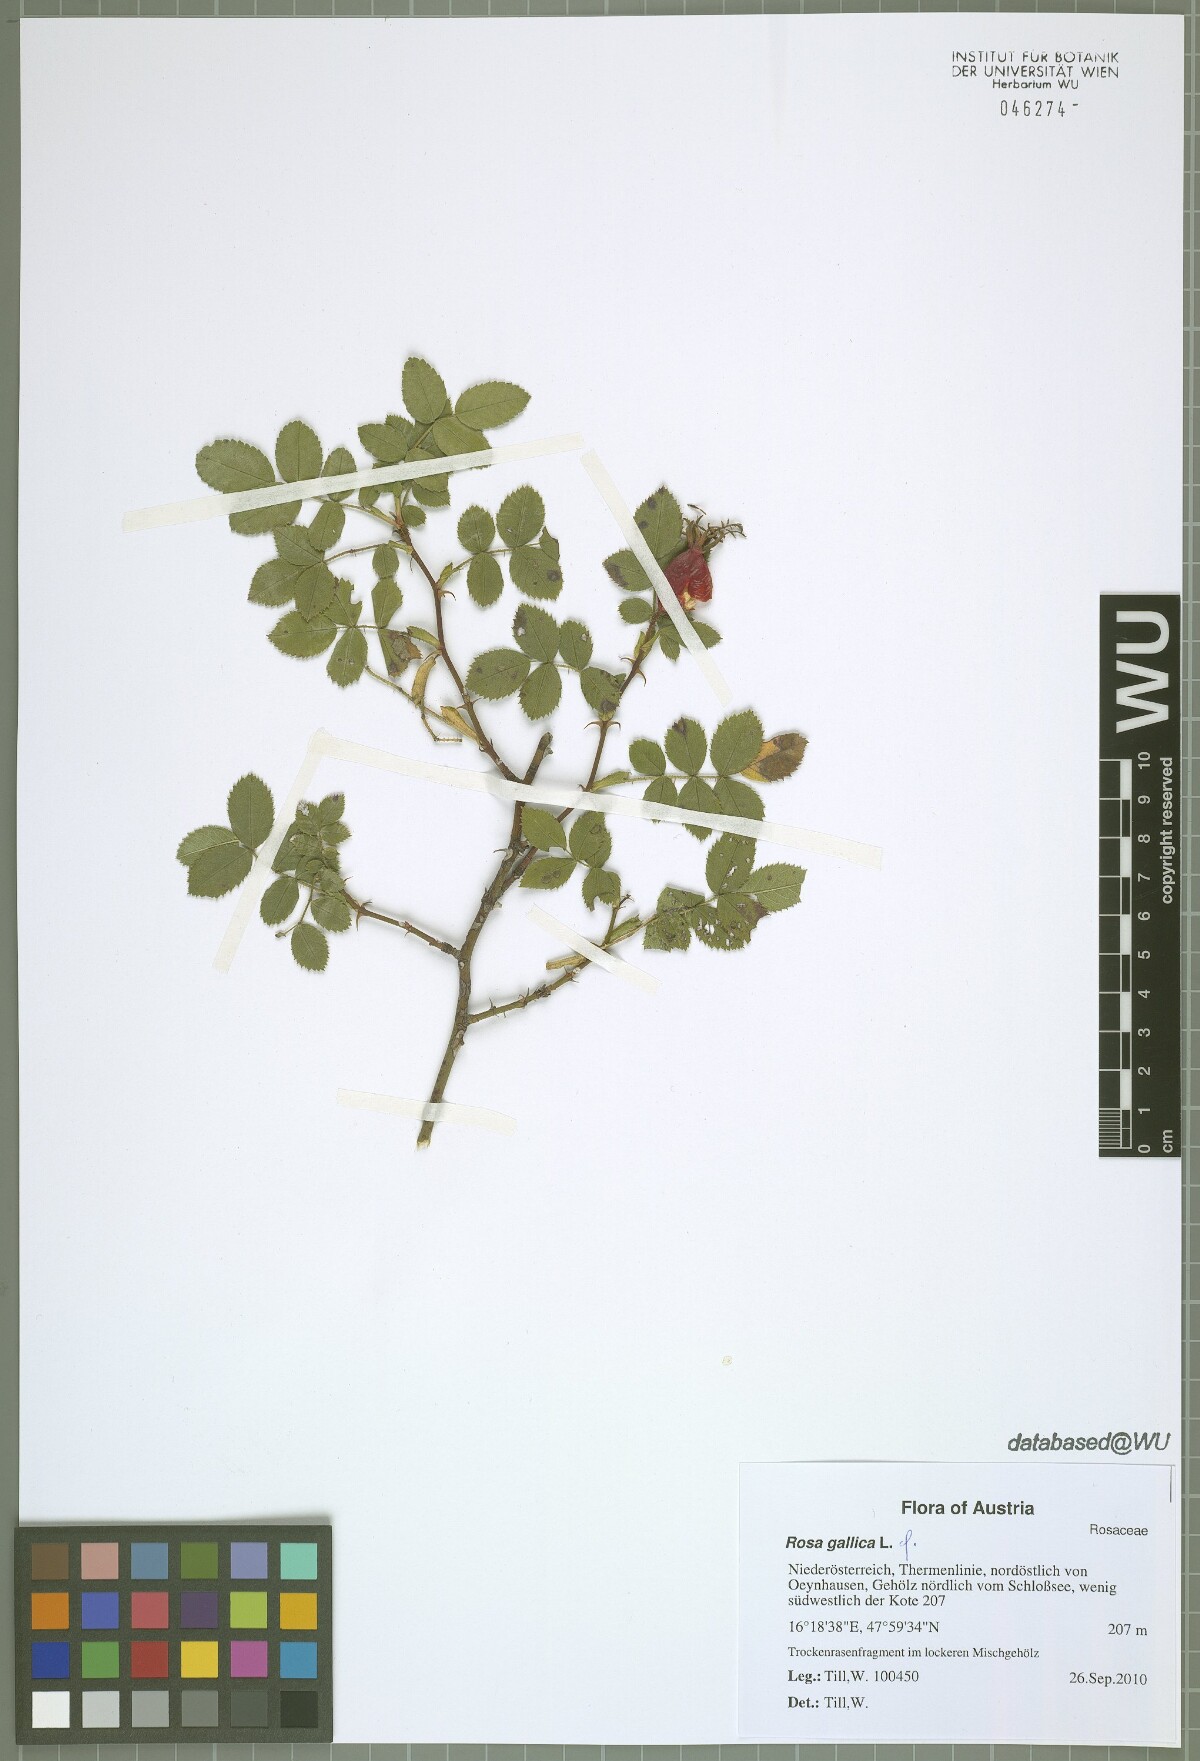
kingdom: Plantae
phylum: Tracheophyta
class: Magnoliopsida
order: Rosales
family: Rosaceae
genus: Rosa
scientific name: Rosa gallica
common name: French rose
